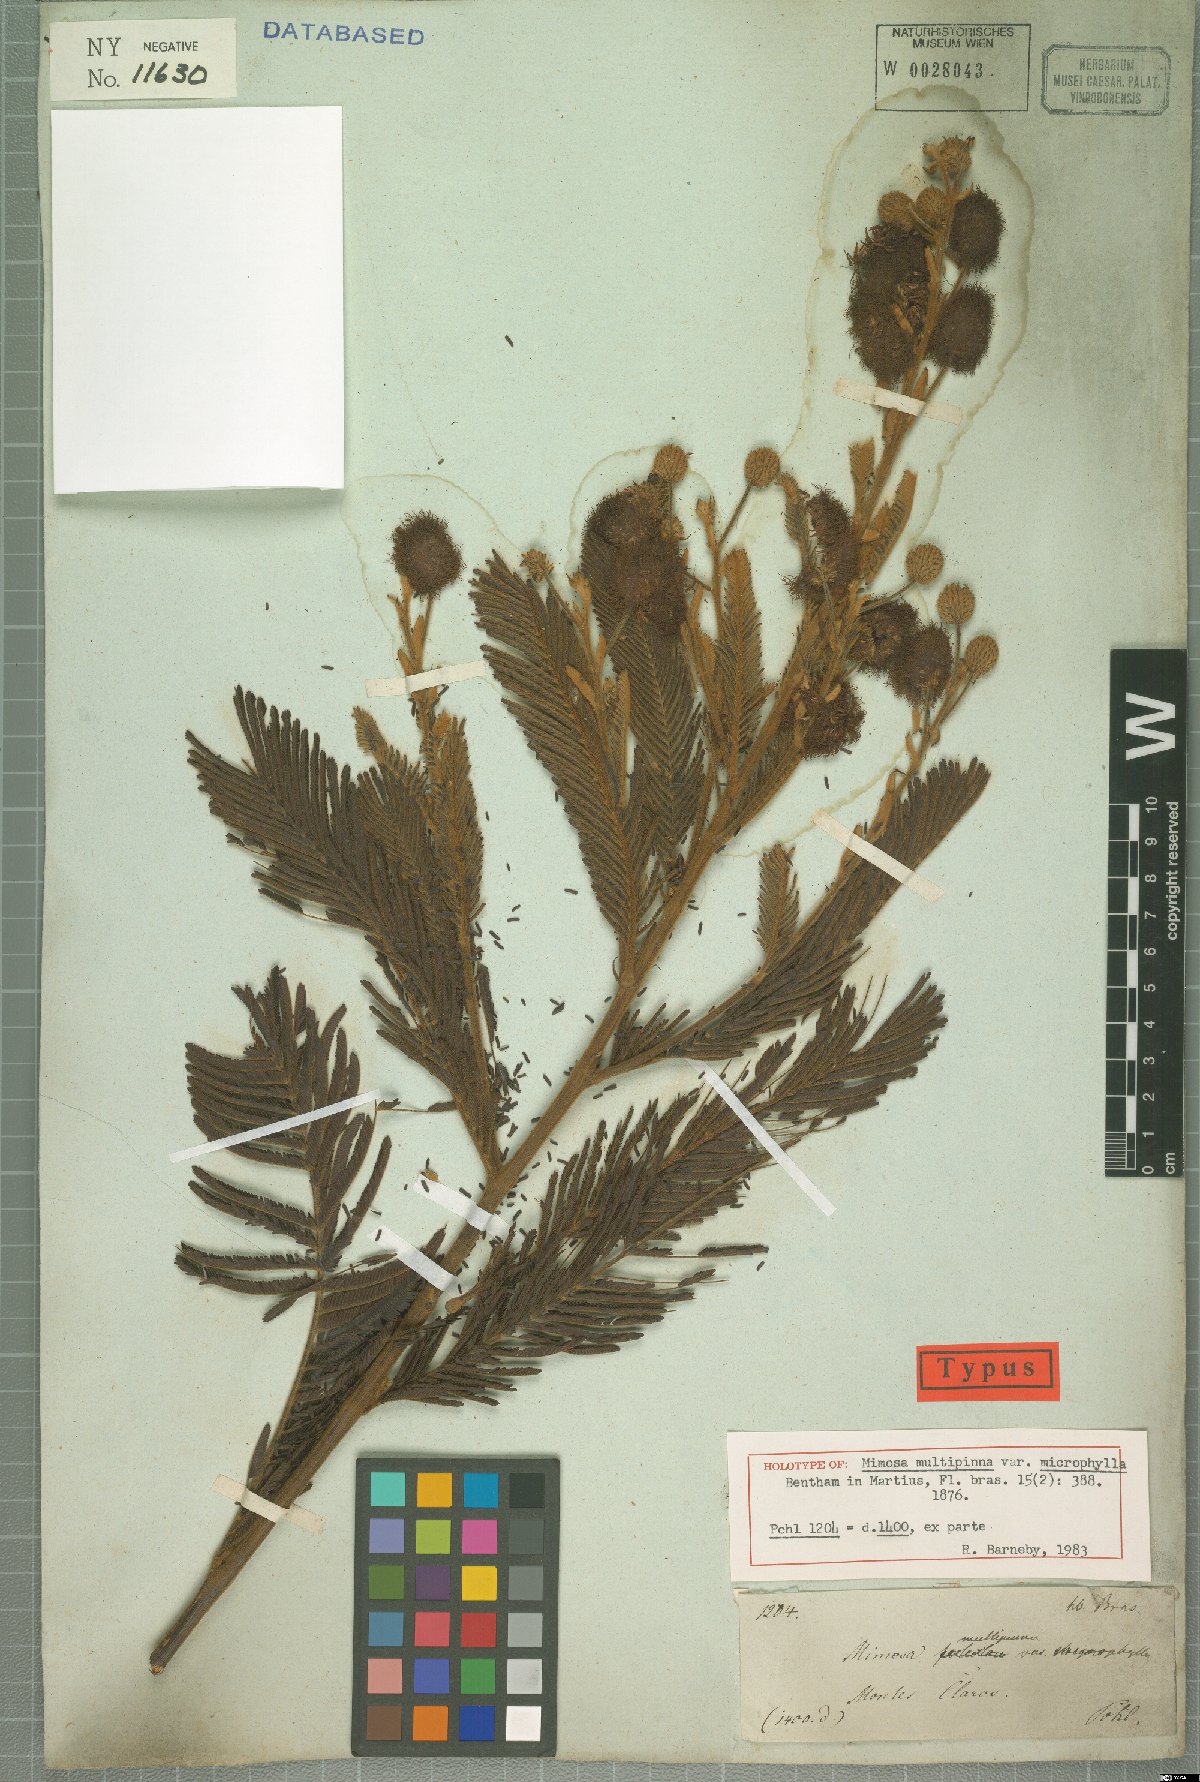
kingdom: Plantae
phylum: Tracheophyta
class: Magnoliopsida
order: Fabales
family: Fabaceae
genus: Mimosa
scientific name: Mimosa foliolosa
